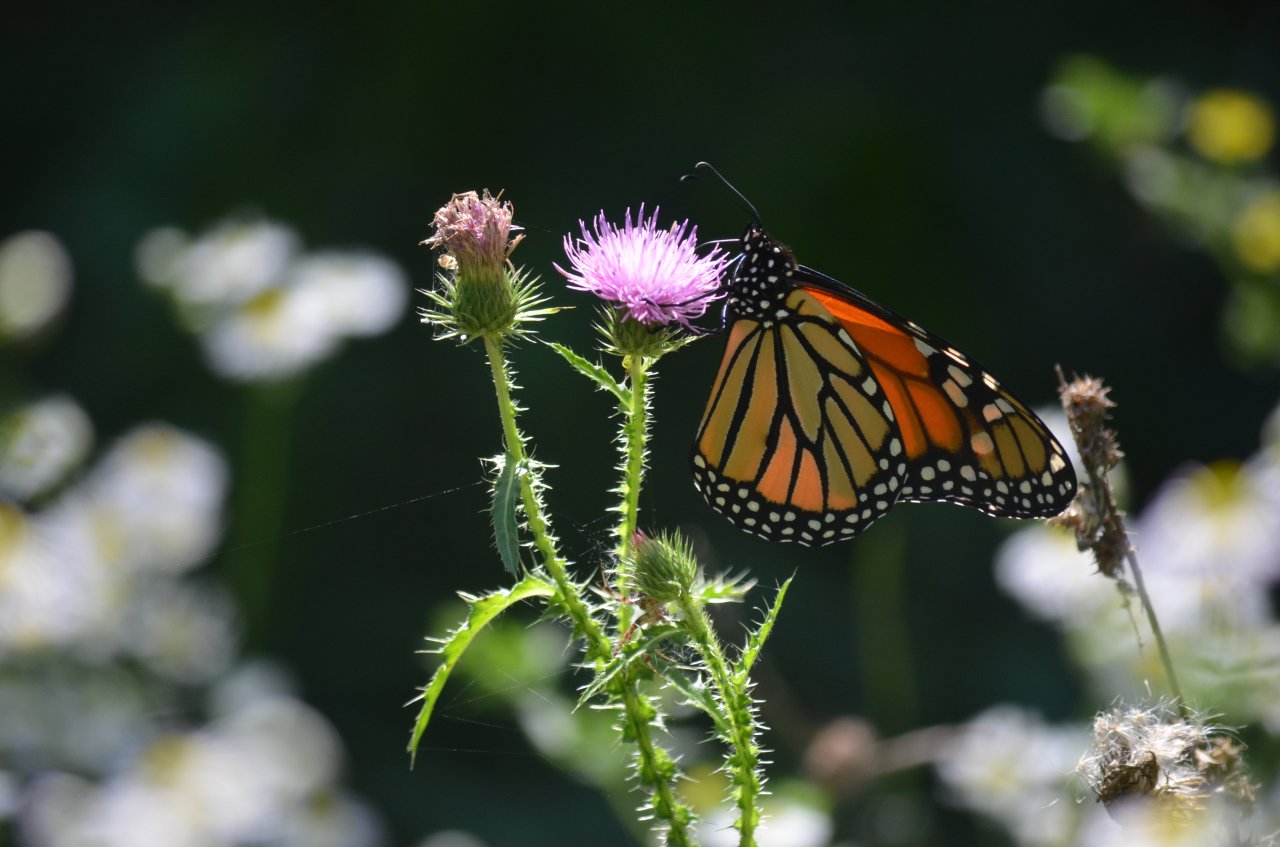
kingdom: Animalia
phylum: Arthropoda
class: Insecta
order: Lepidoptera
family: Nymphalidae
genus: Danaus
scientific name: Danaus plexippus
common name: Monarch
